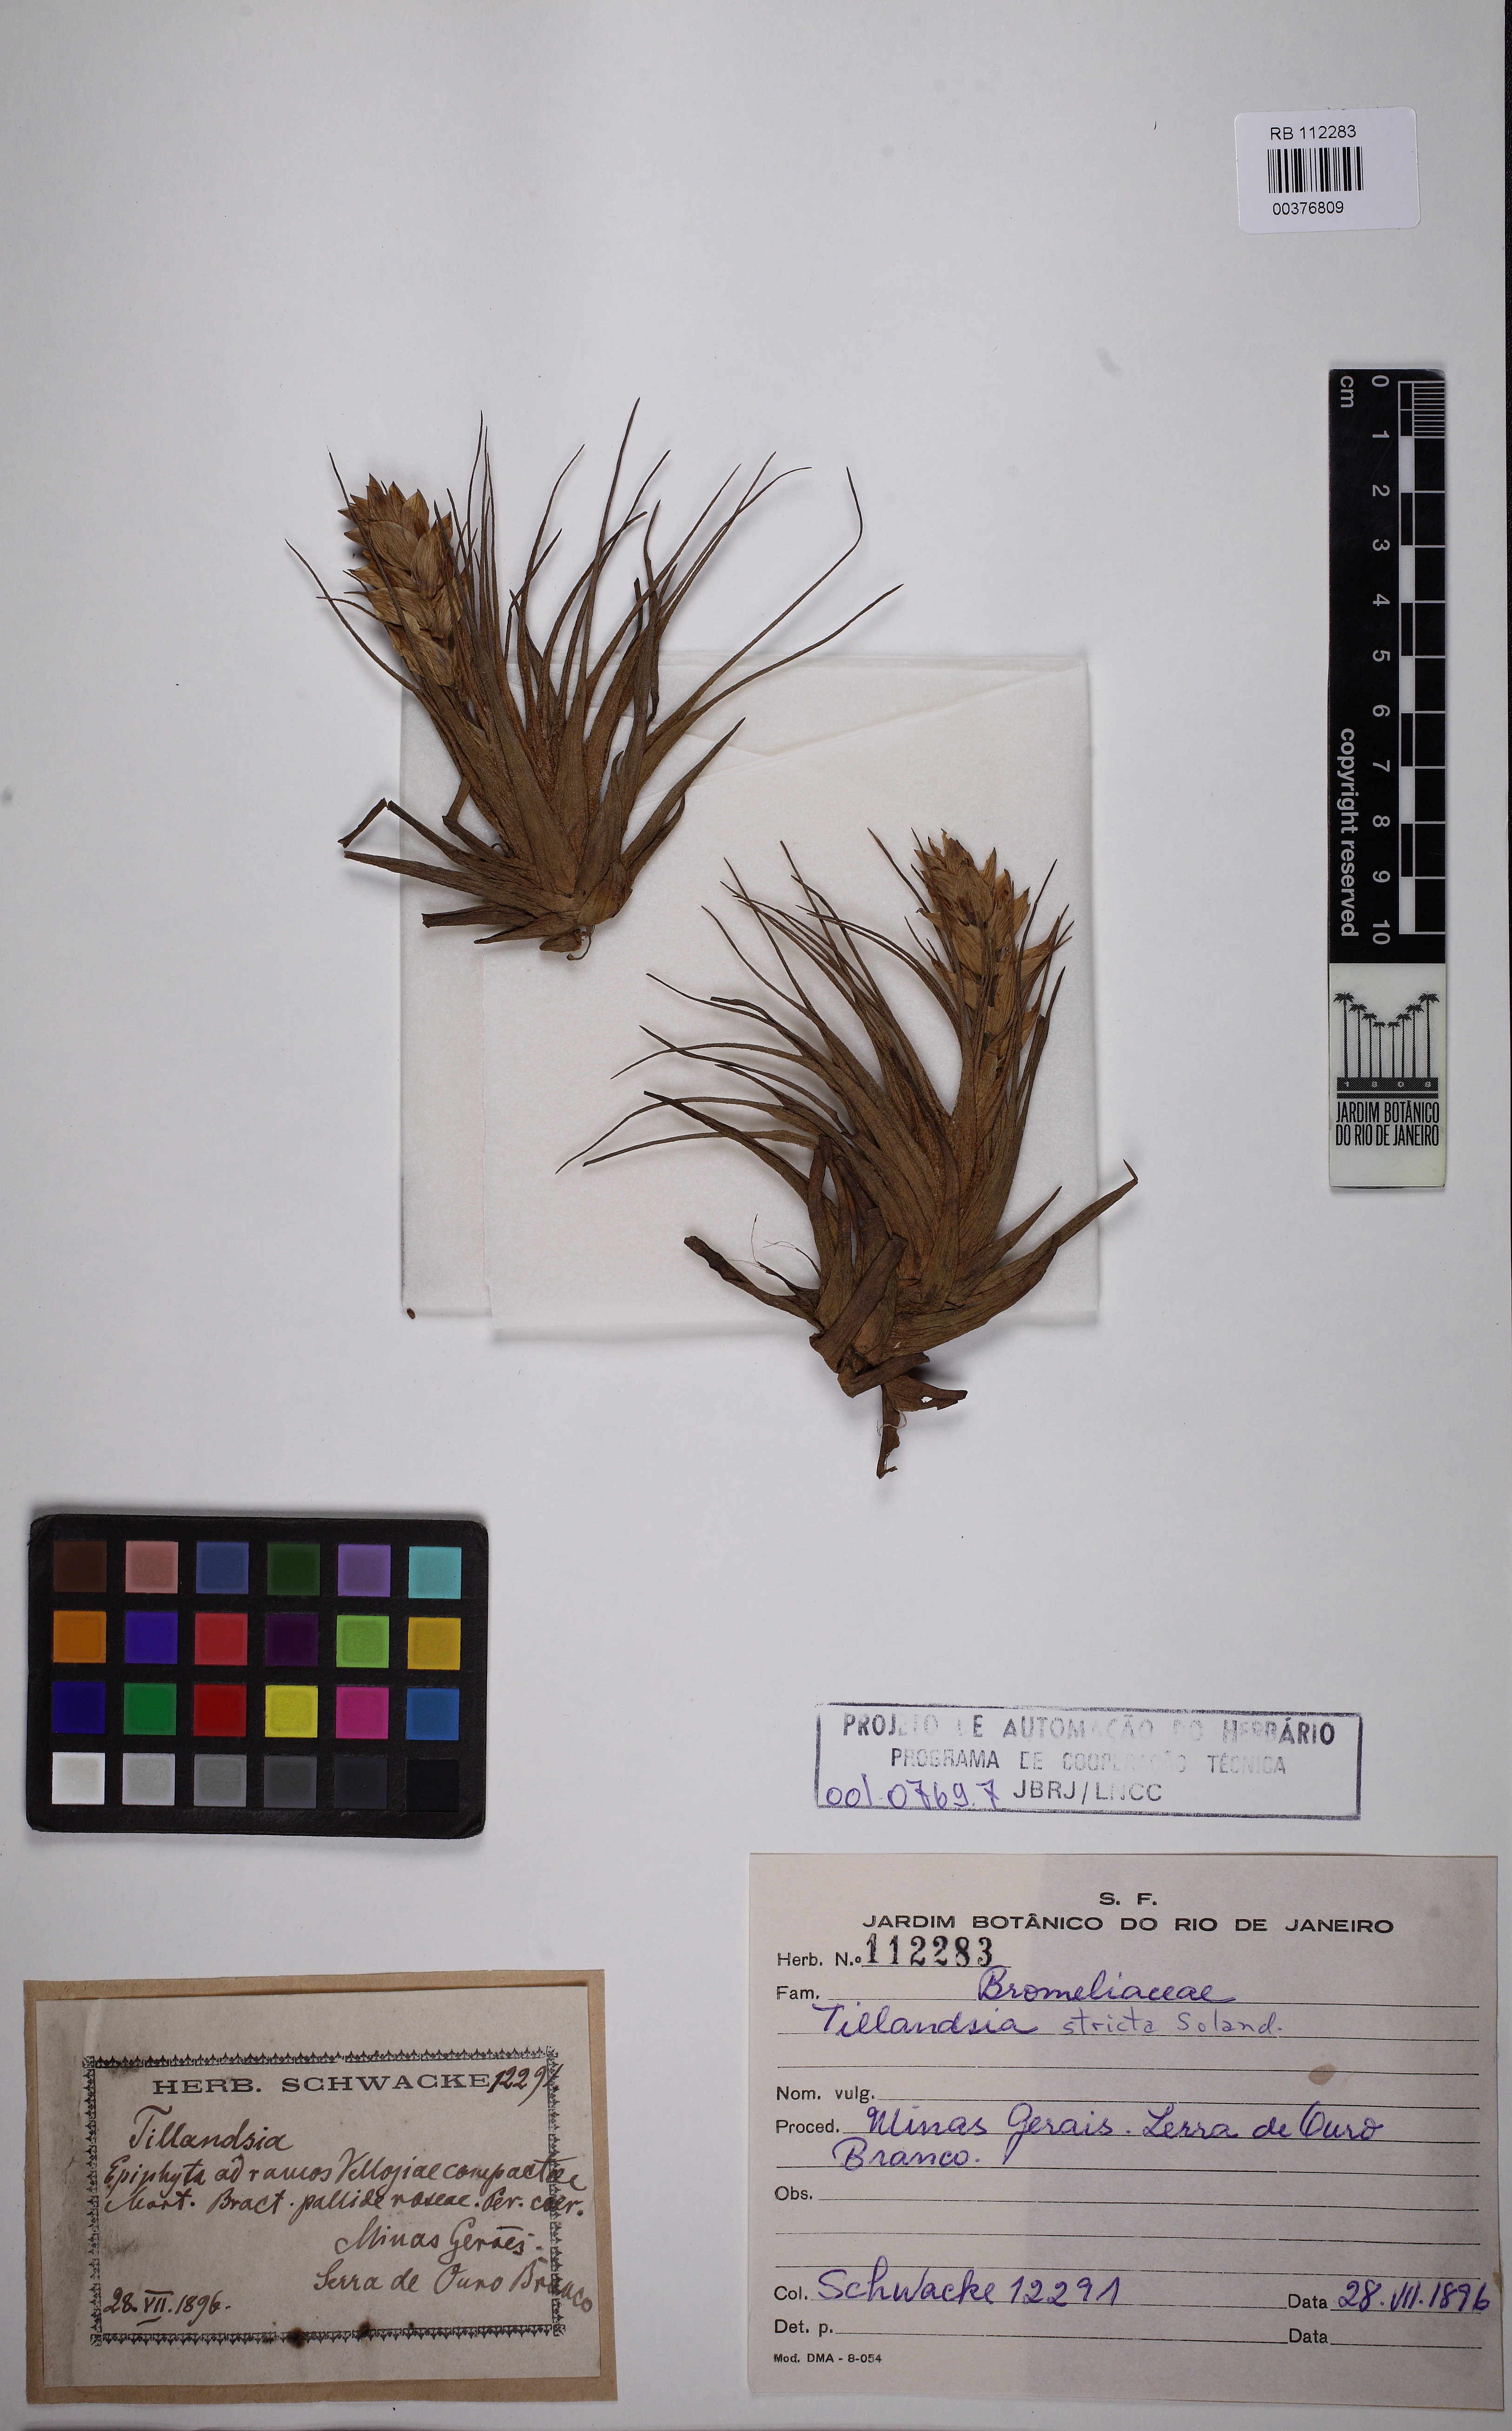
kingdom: Plantae
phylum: Tracheophyta
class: Liliopsida
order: Poales
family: Bromeliaceae
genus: Tillandsia
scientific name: Tillandsia stricta
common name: Airplant
